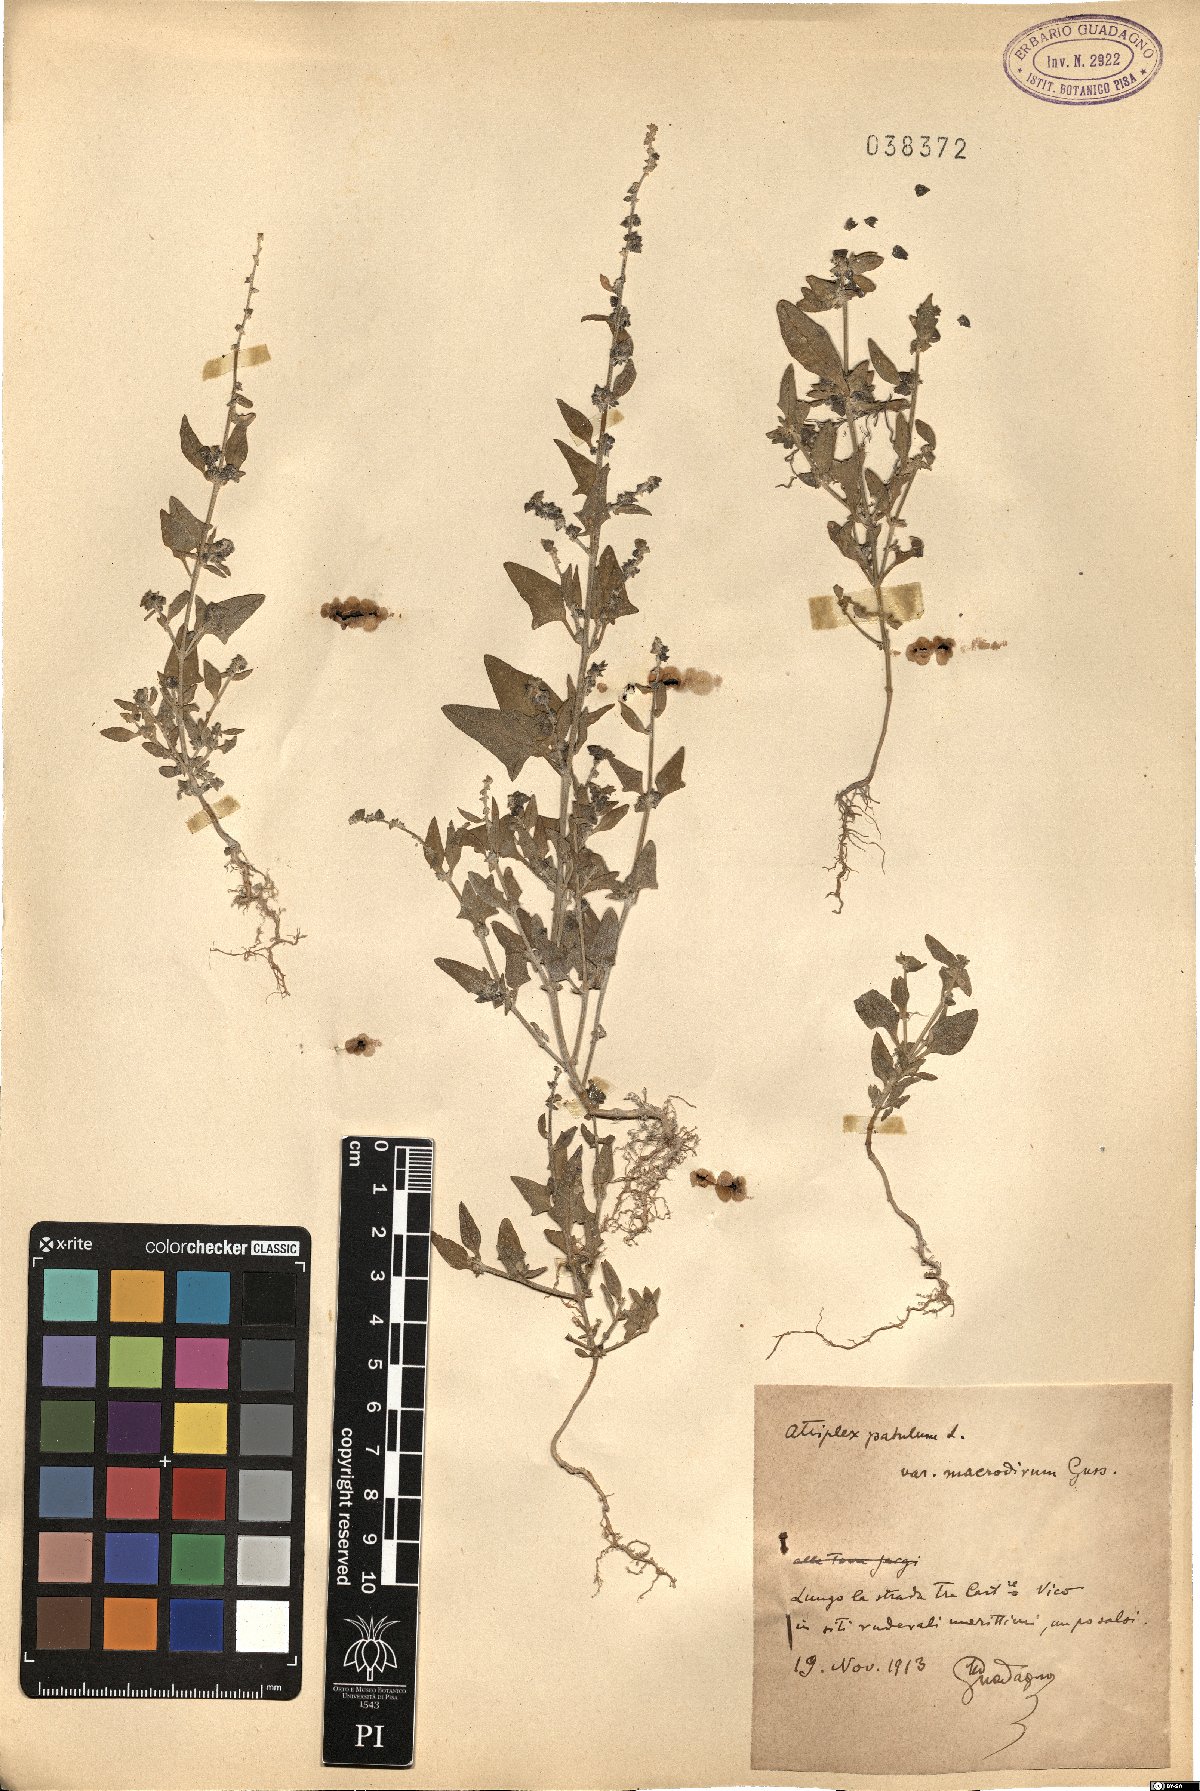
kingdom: Plantae
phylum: Tracheophyta
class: Magnoliopsida
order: Caryophyllales
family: Amaranthaceae
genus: Atriplex
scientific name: Atriplex patula
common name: Common orache
